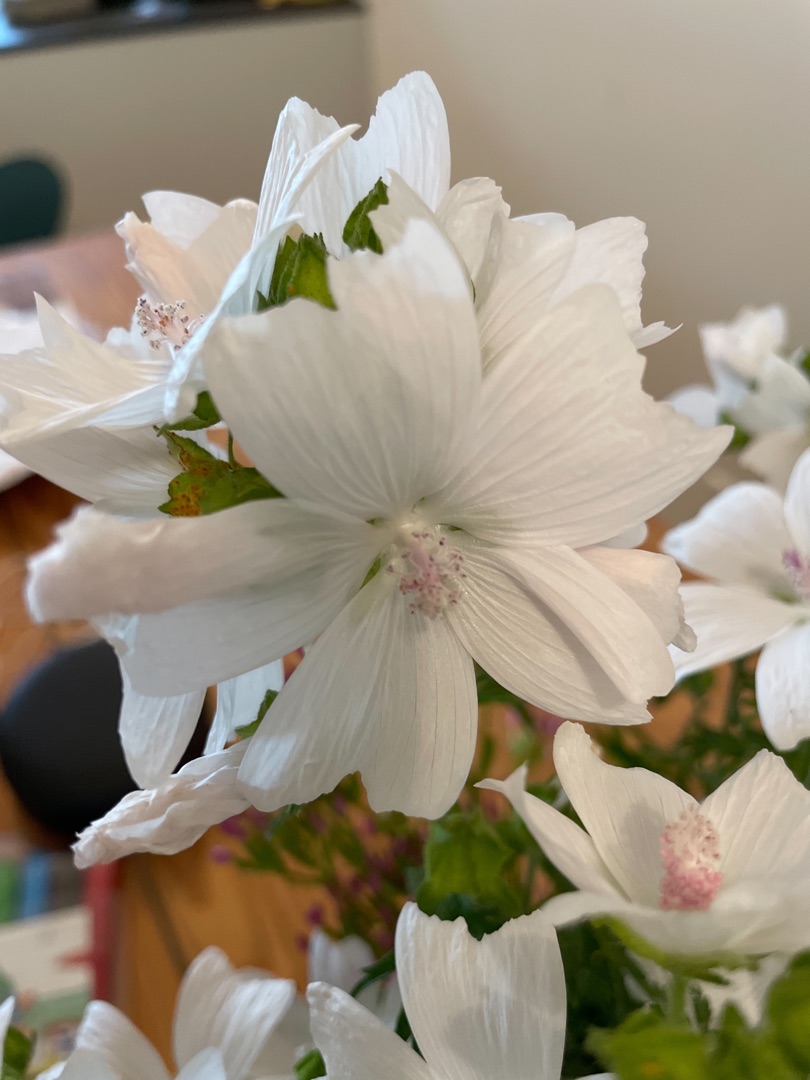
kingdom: Plantae
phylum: Tracheophyta
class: Magnoliopsida
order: Malvales
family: Malvaceae
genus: Malva
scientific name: Malva moschata
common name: Moskus-katost
